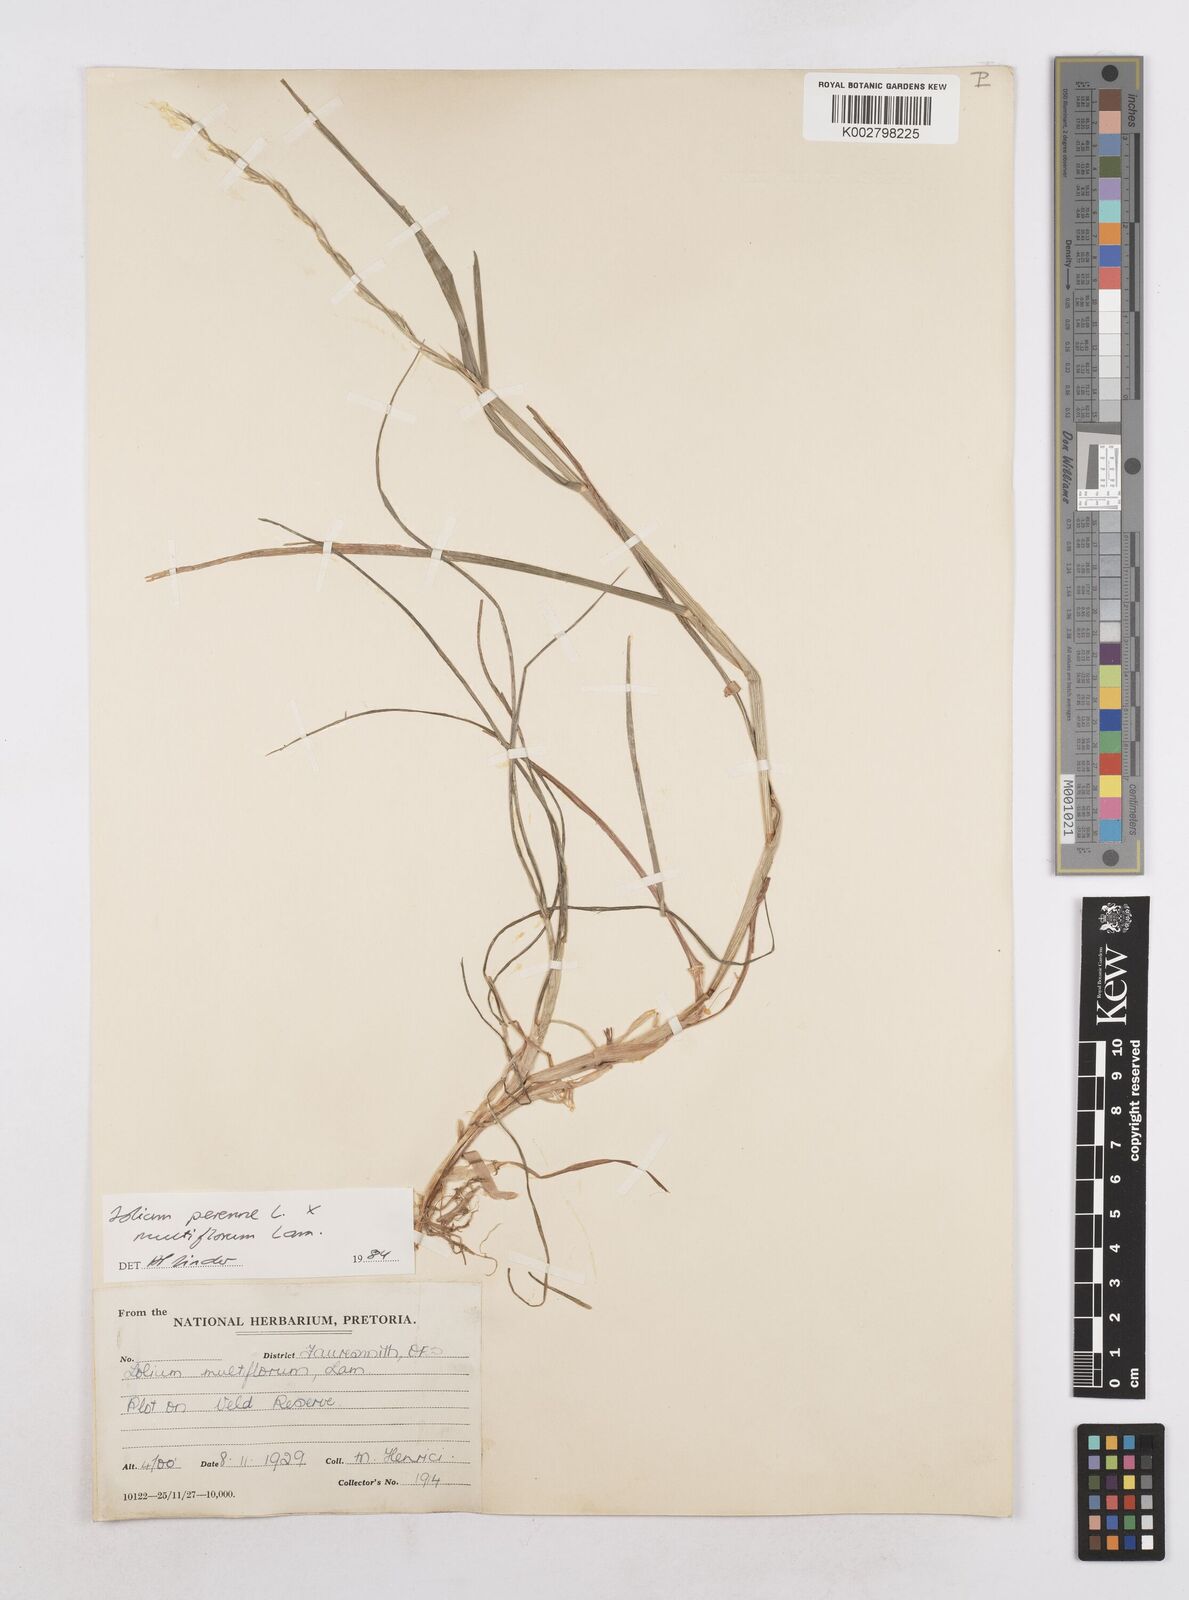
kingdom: Plantae
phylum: Tracheophyta
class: Liliopsida
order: Poales
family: Poaceae
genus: Lolium
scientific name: Lolium multiflorum
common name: Annual ryegrass
